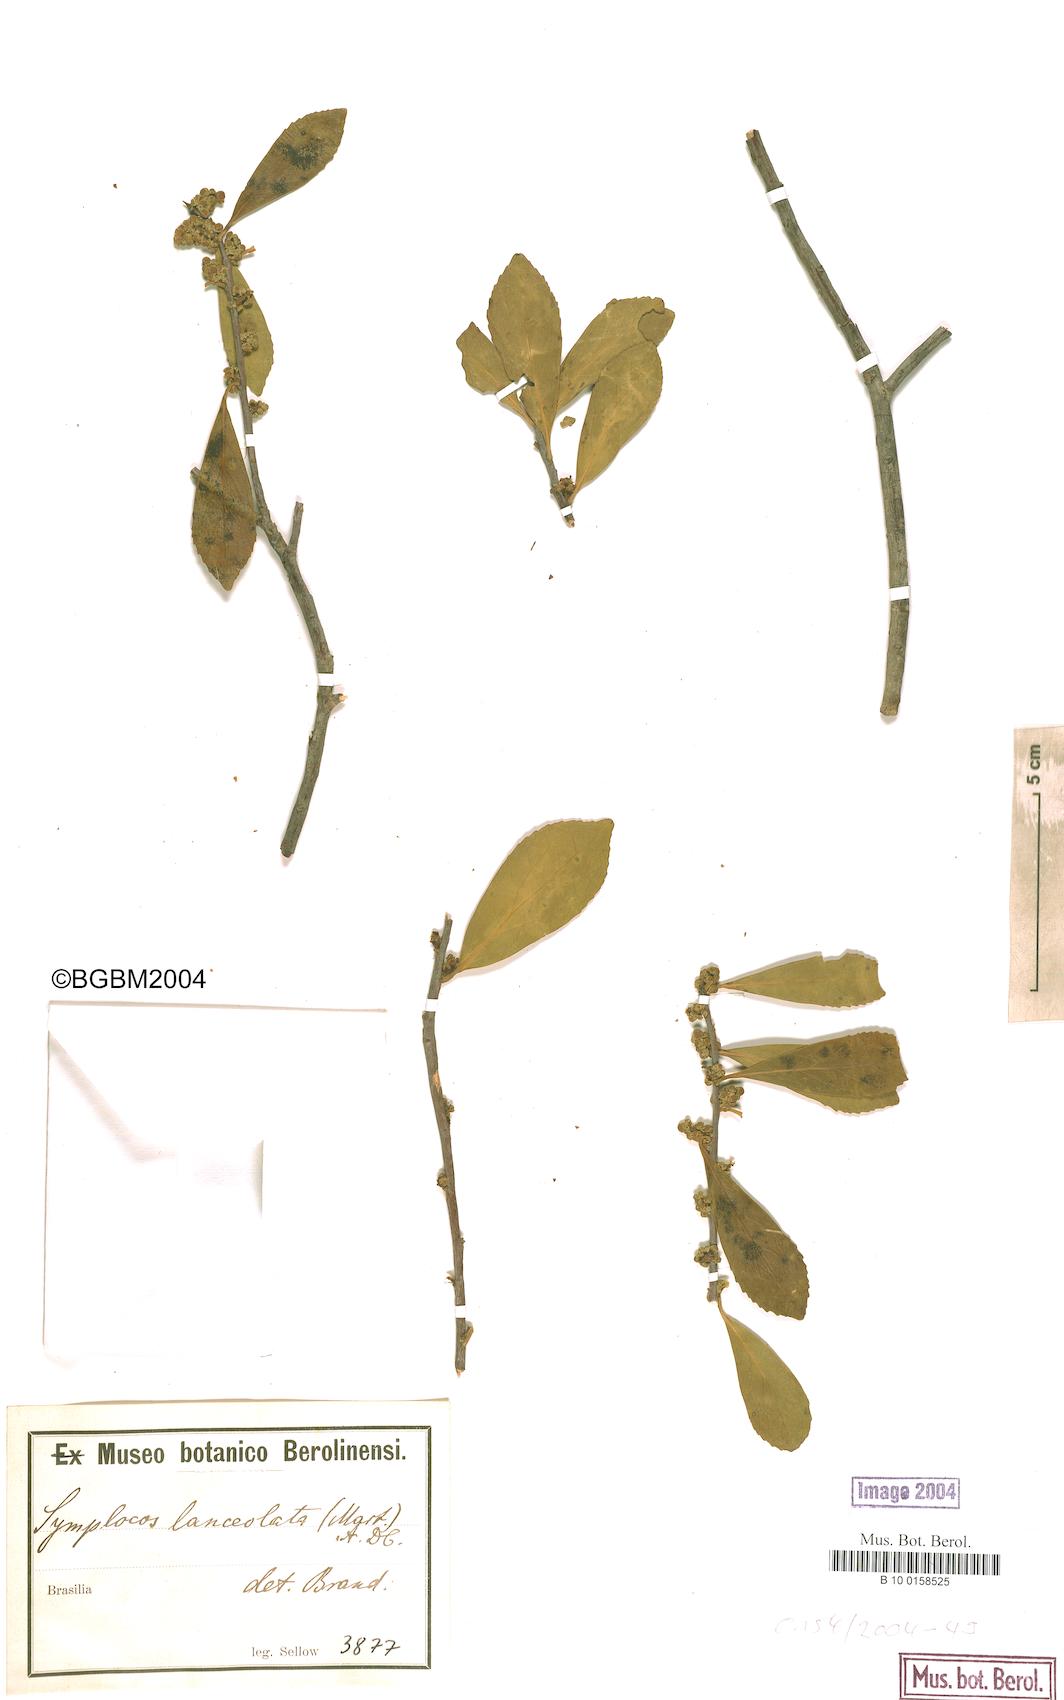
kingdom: Plantae
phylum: Tracheophyta
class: Magnoliopsida
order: Ericales
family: Symplocaceae
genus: Symplocos
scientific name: Symplocos oblongifolia
